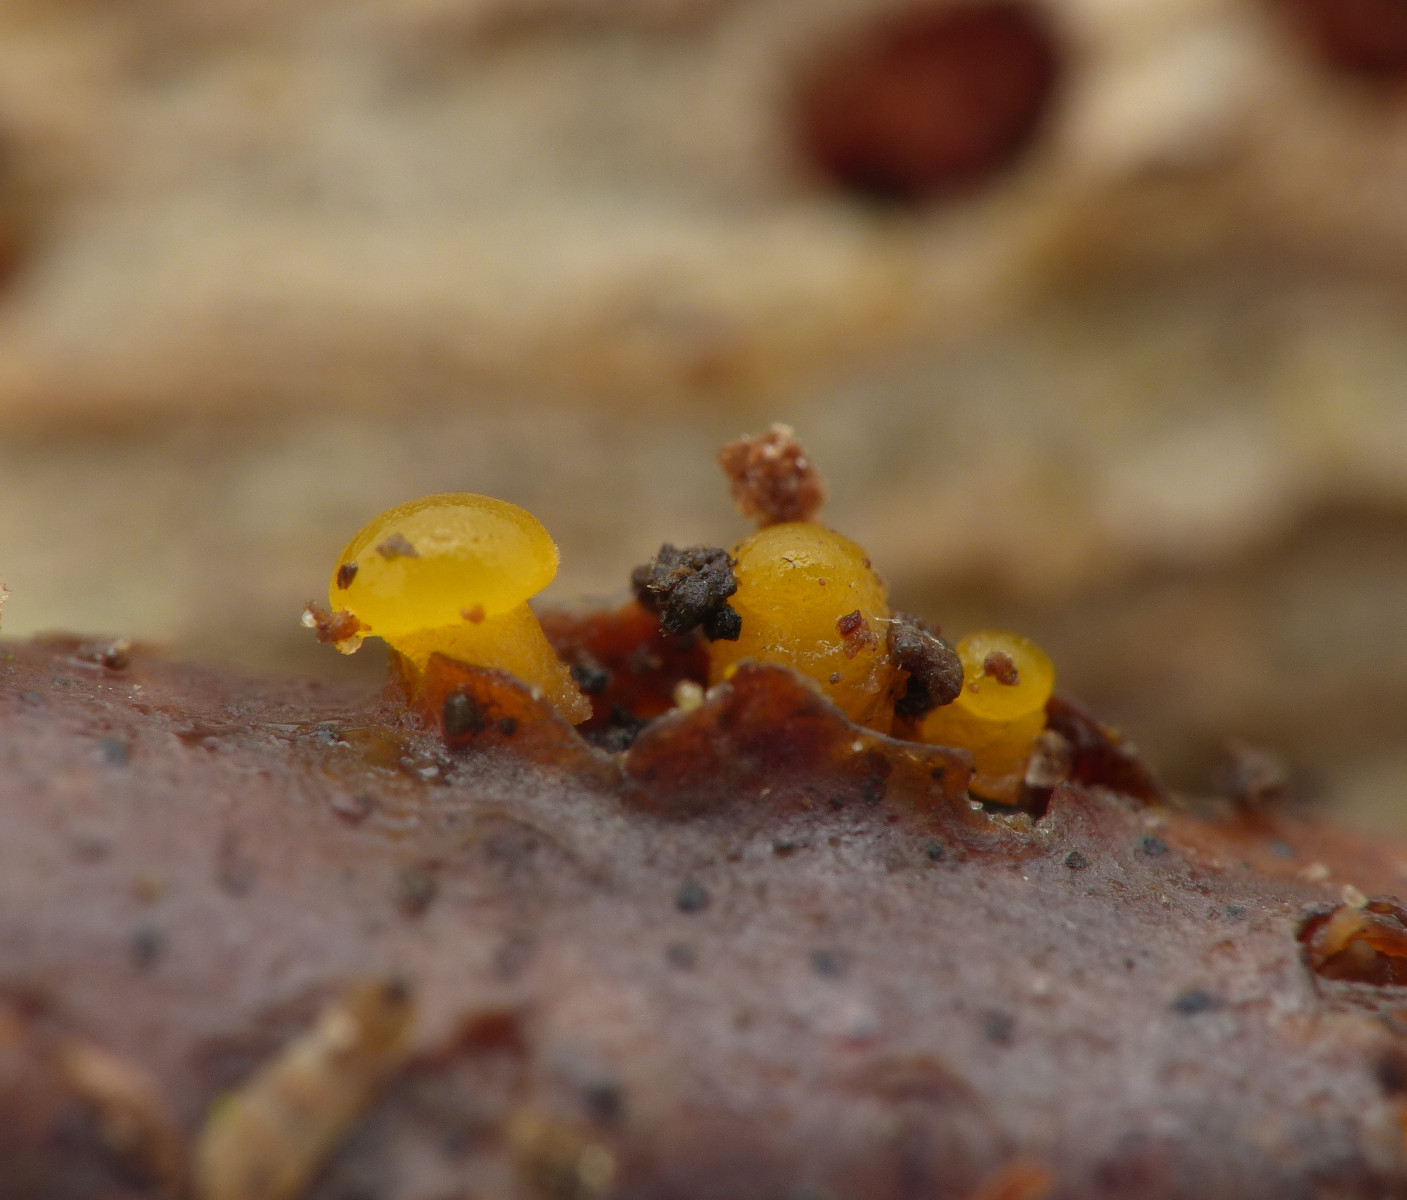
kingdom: Fungi
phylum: Basidiomycota
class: Dacrymycetes
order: Dacrymycetales
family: Dacrymycetaceae
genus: Dacrymyces
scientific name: Dacrymyces capitatus
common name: stilket tåresvamp
